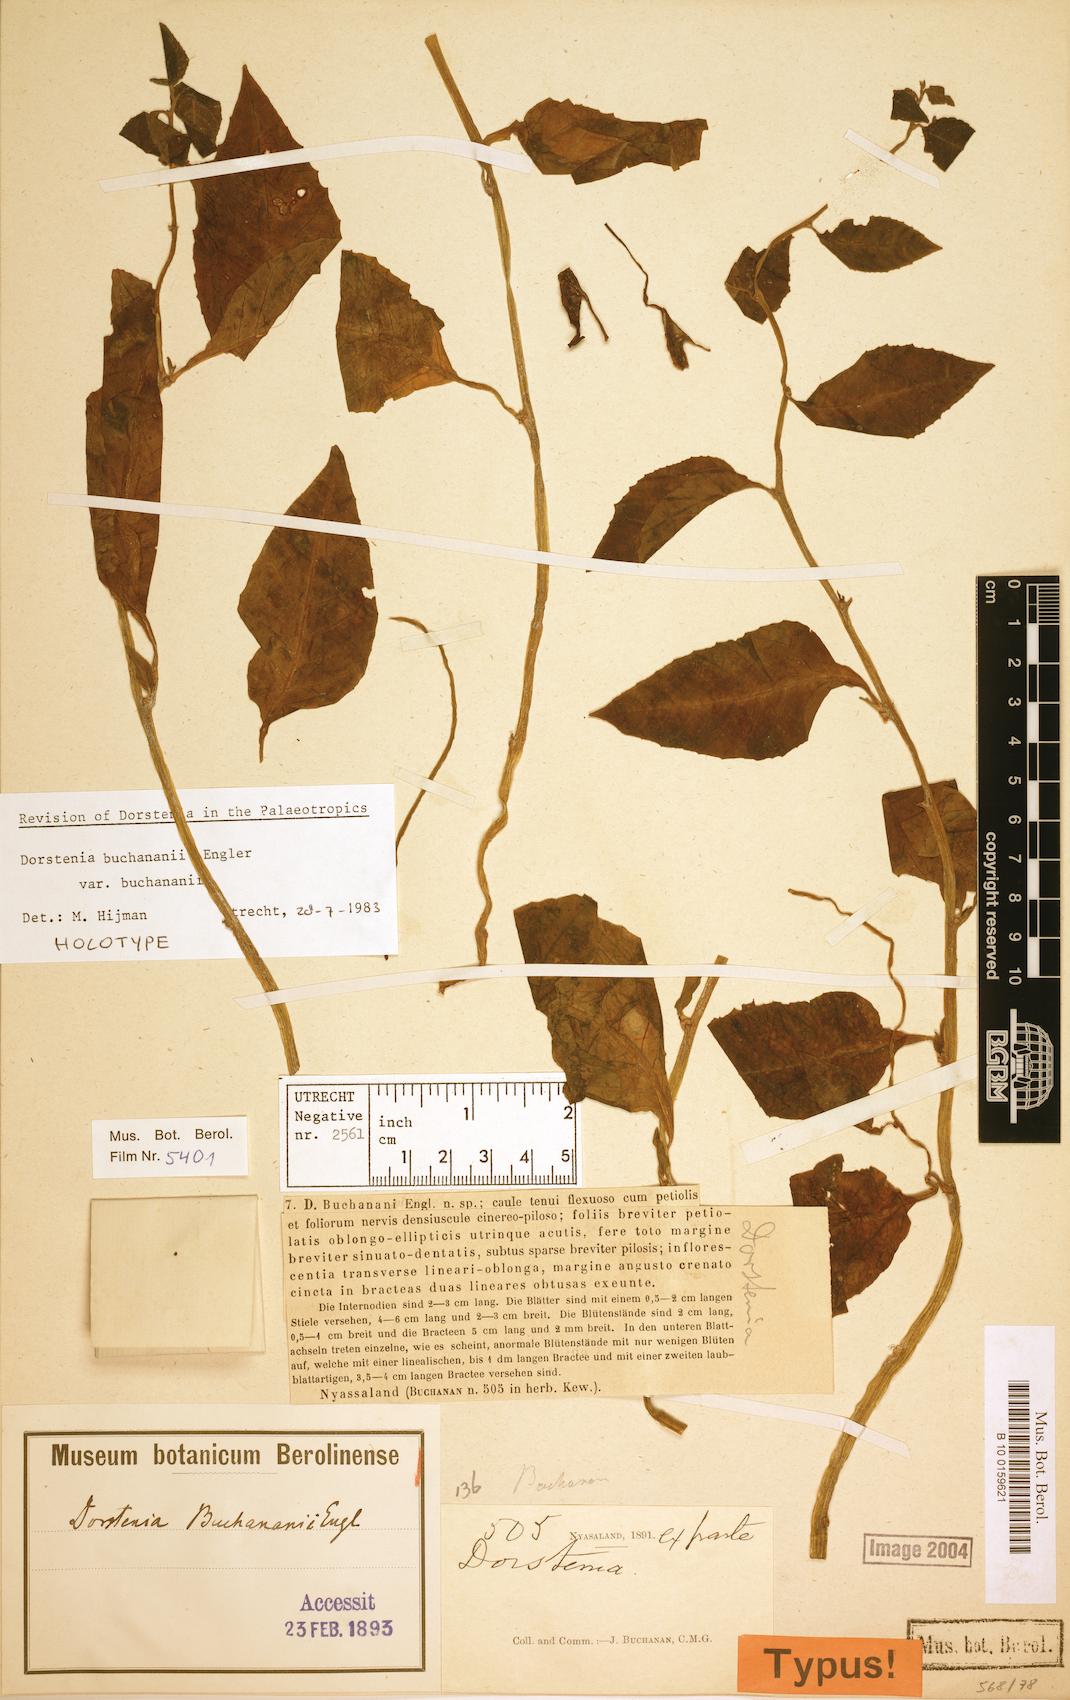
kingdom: Plantae
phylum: Tracheophyta
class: Magnoliopsida
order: Rosales
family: Moraceae
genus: Dorstenia
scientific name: Dorstenia buchananii
